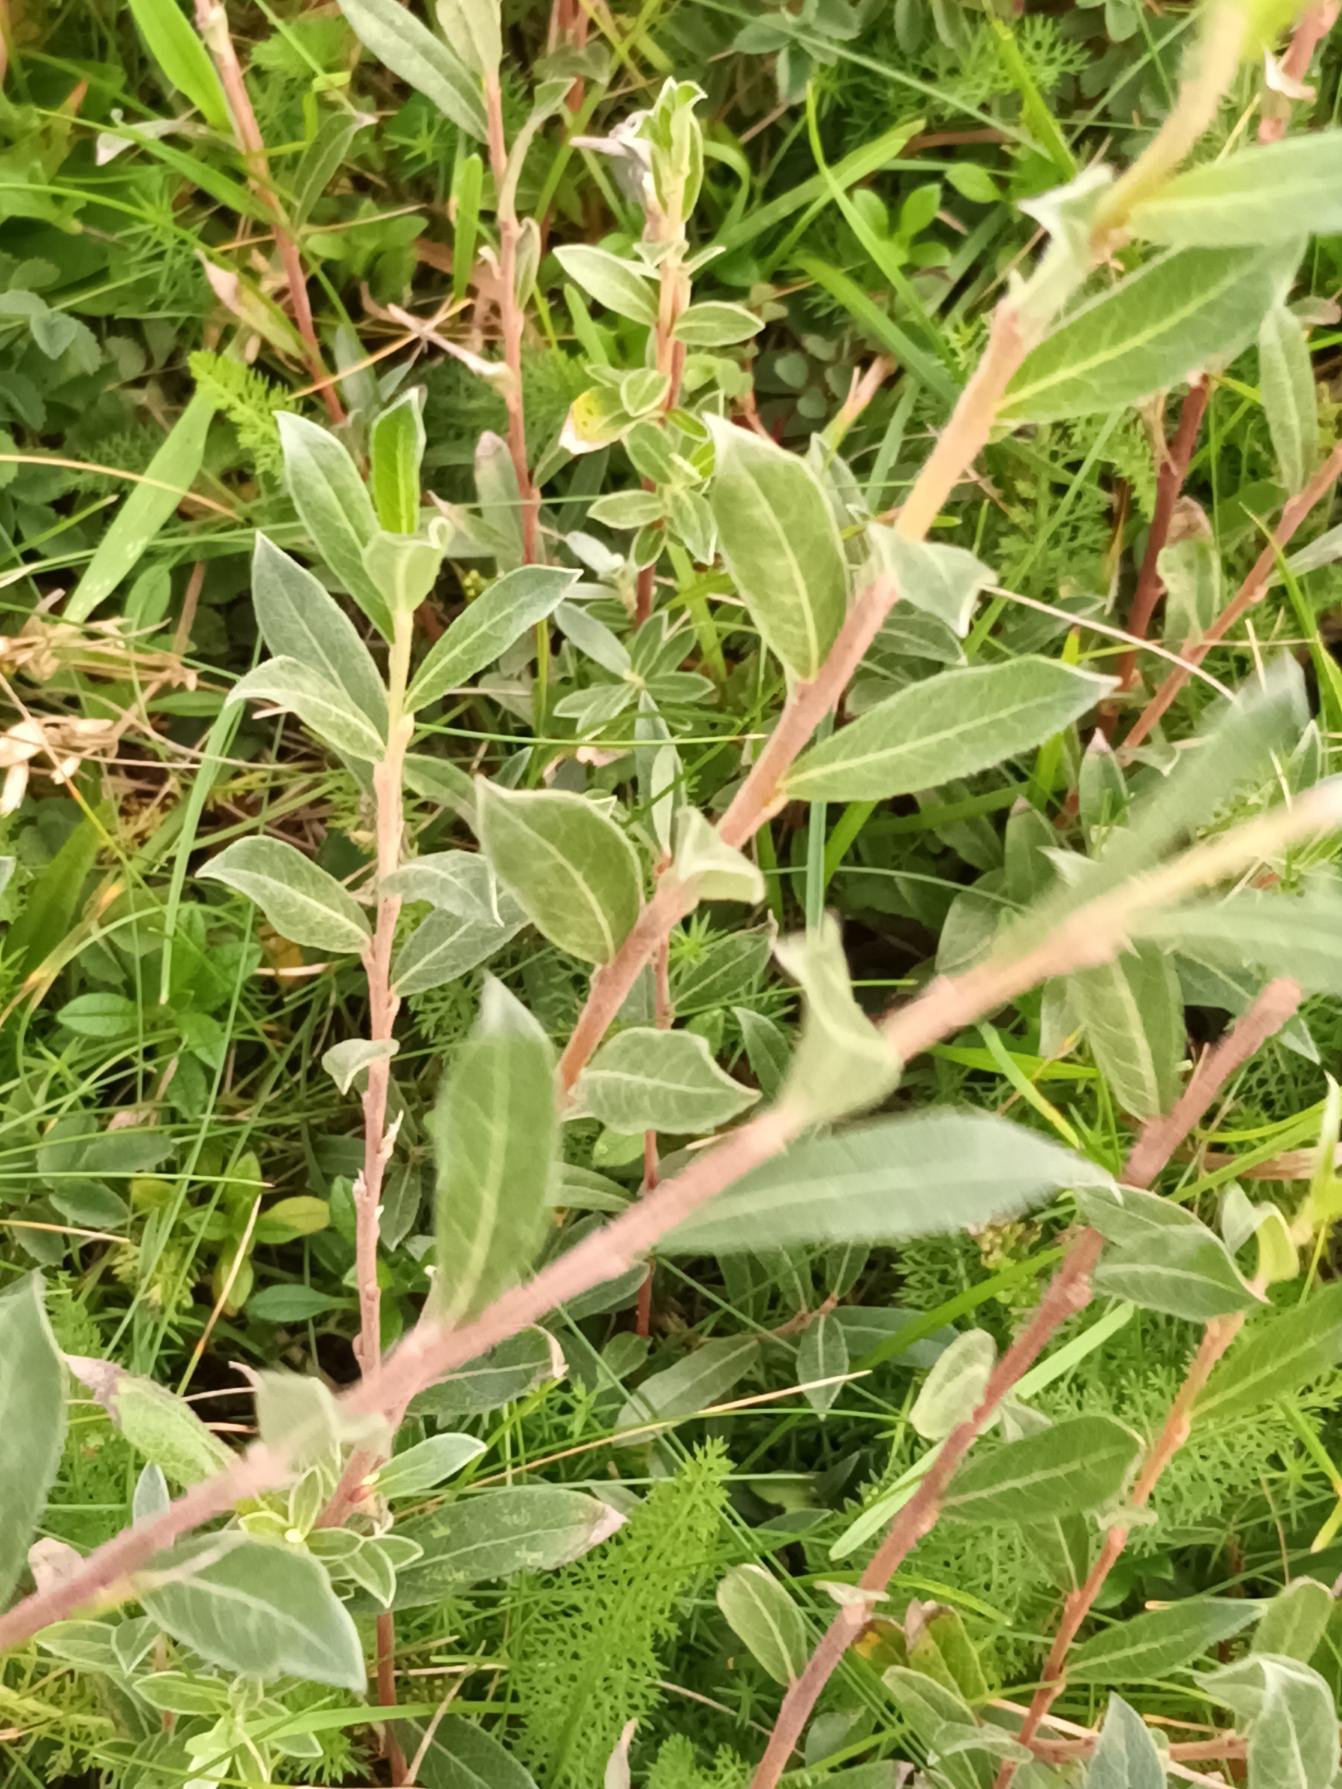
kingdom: Plantae
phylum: Tracheophyta
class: Magnoliopsida
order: Malpighiales
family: Salicaceae
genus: Salix
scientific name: Salix repens
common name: Krybende pil
